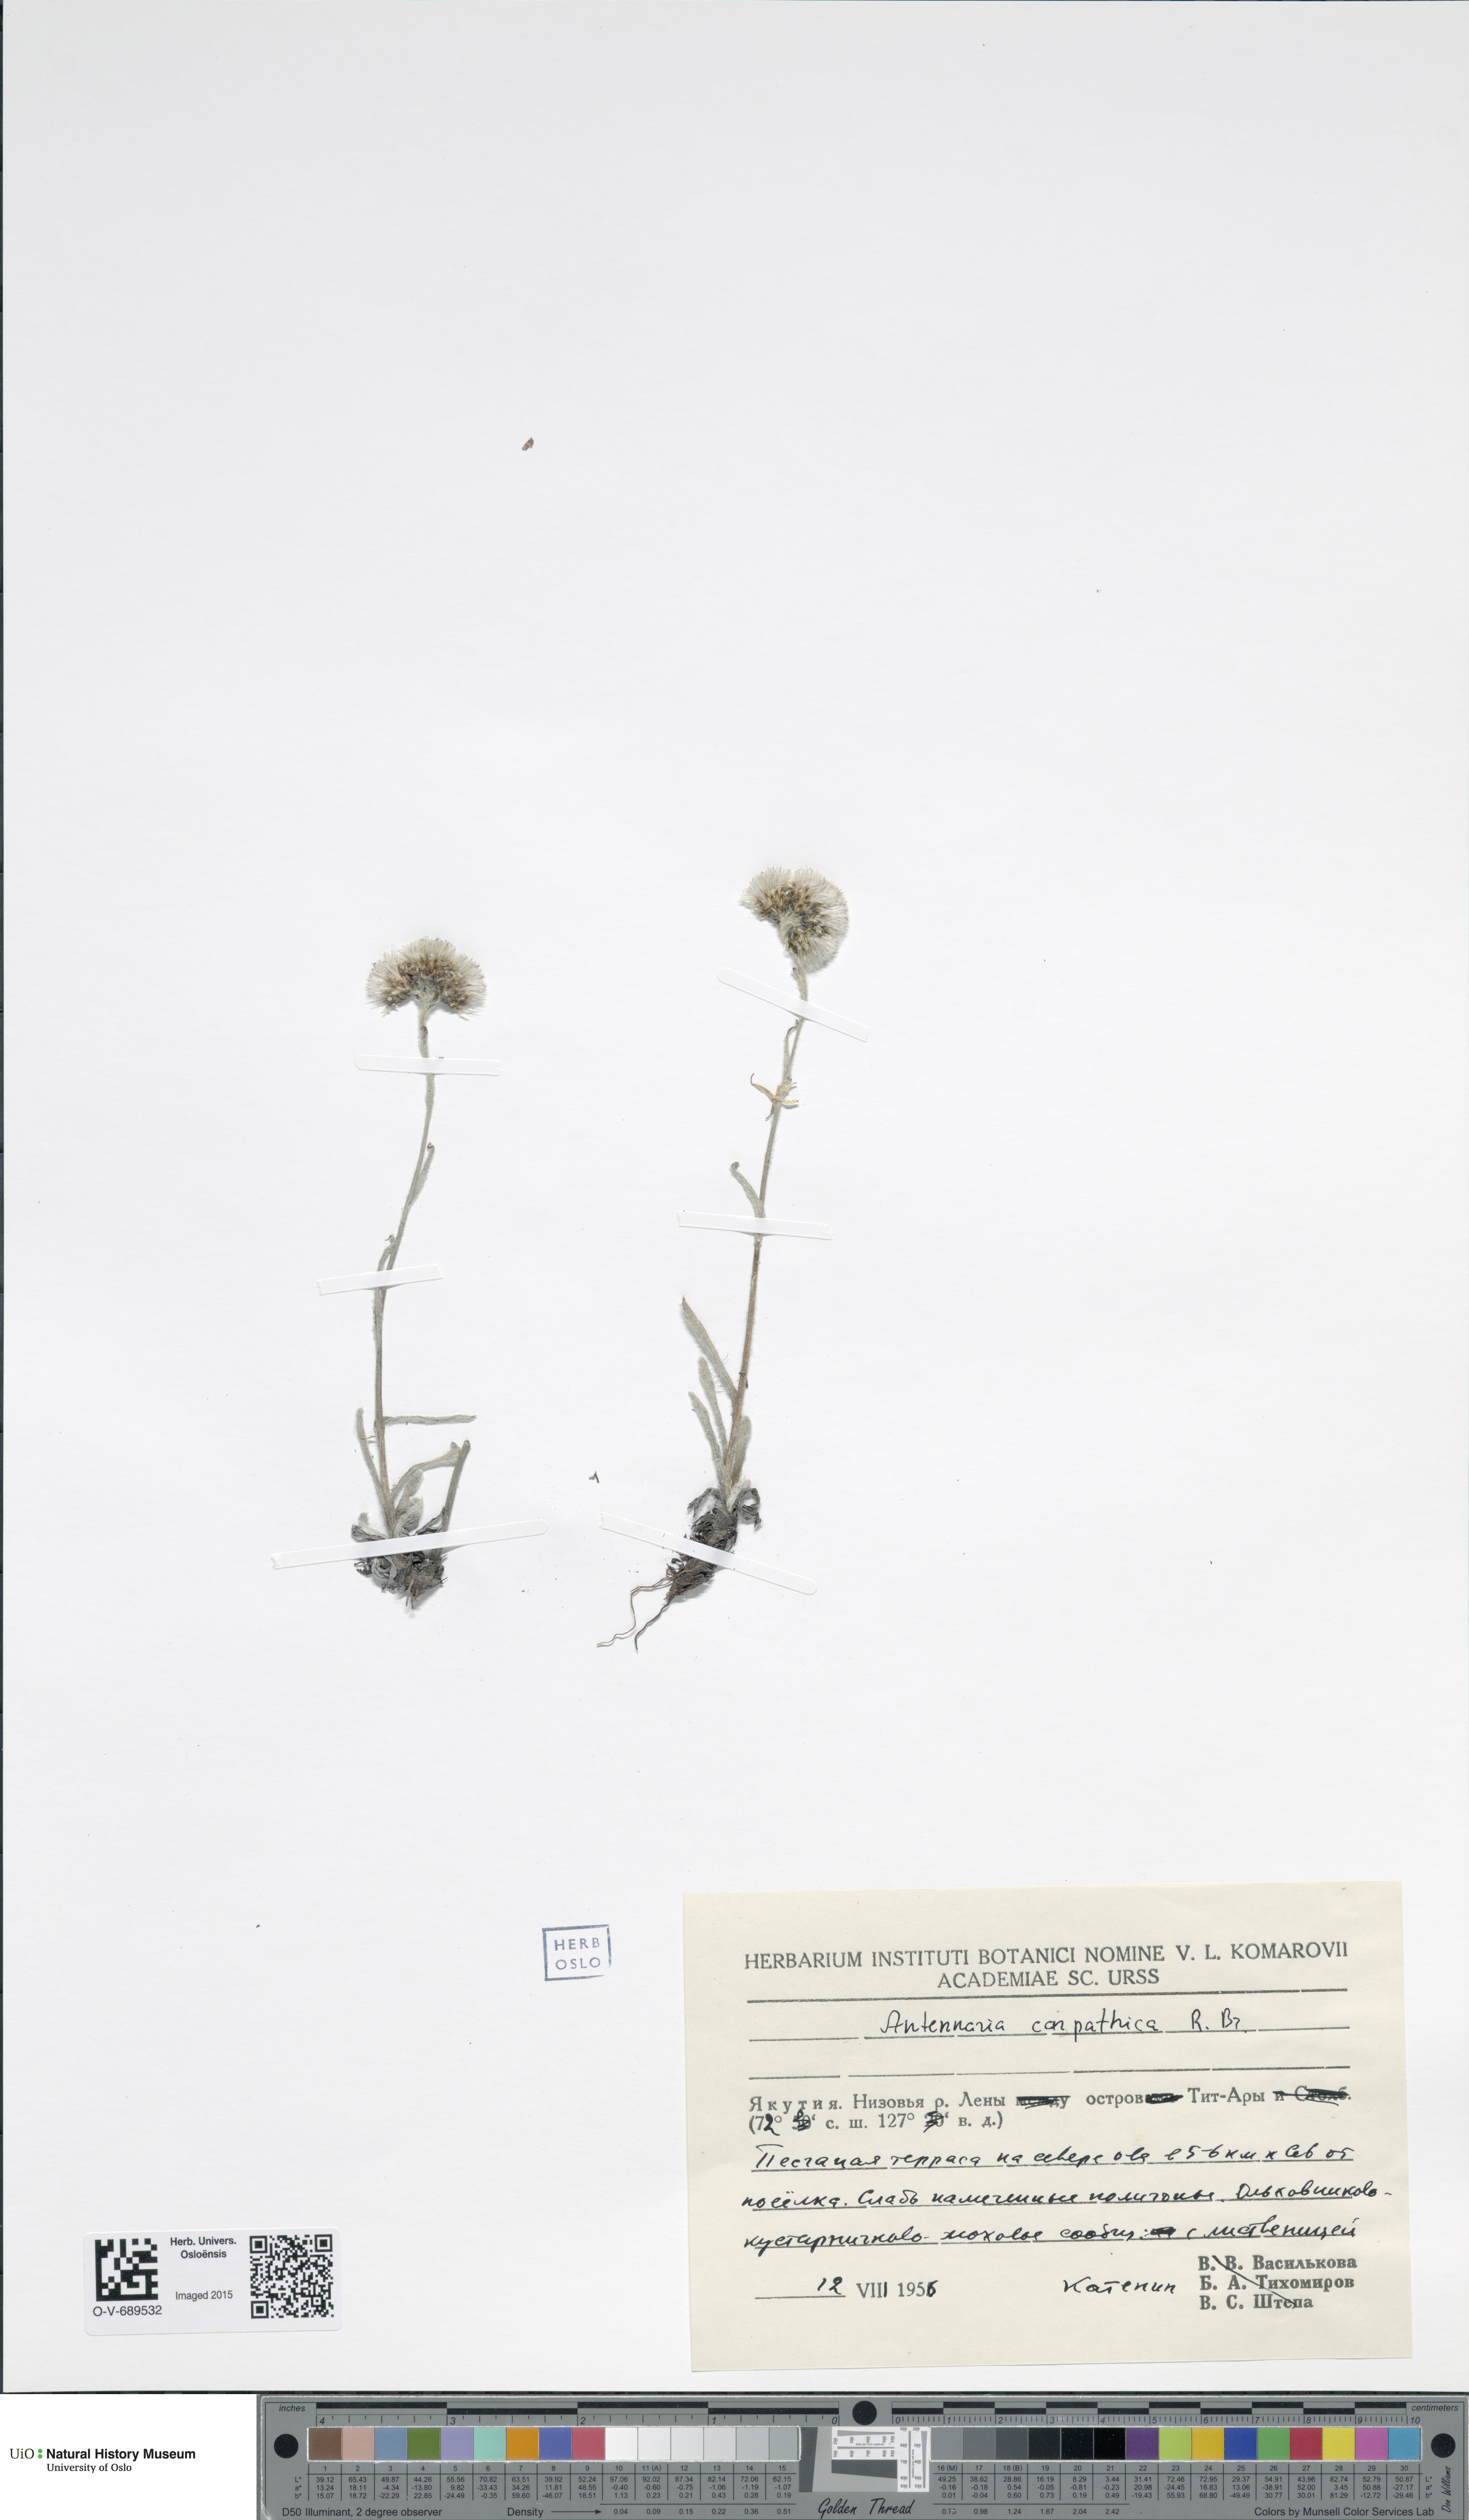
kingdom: Plantae
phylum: Tracheophyta
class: Magnoliopsida
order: Asterales
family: Asteraceae
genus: Antennaria
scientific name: Antennaria carpatica
